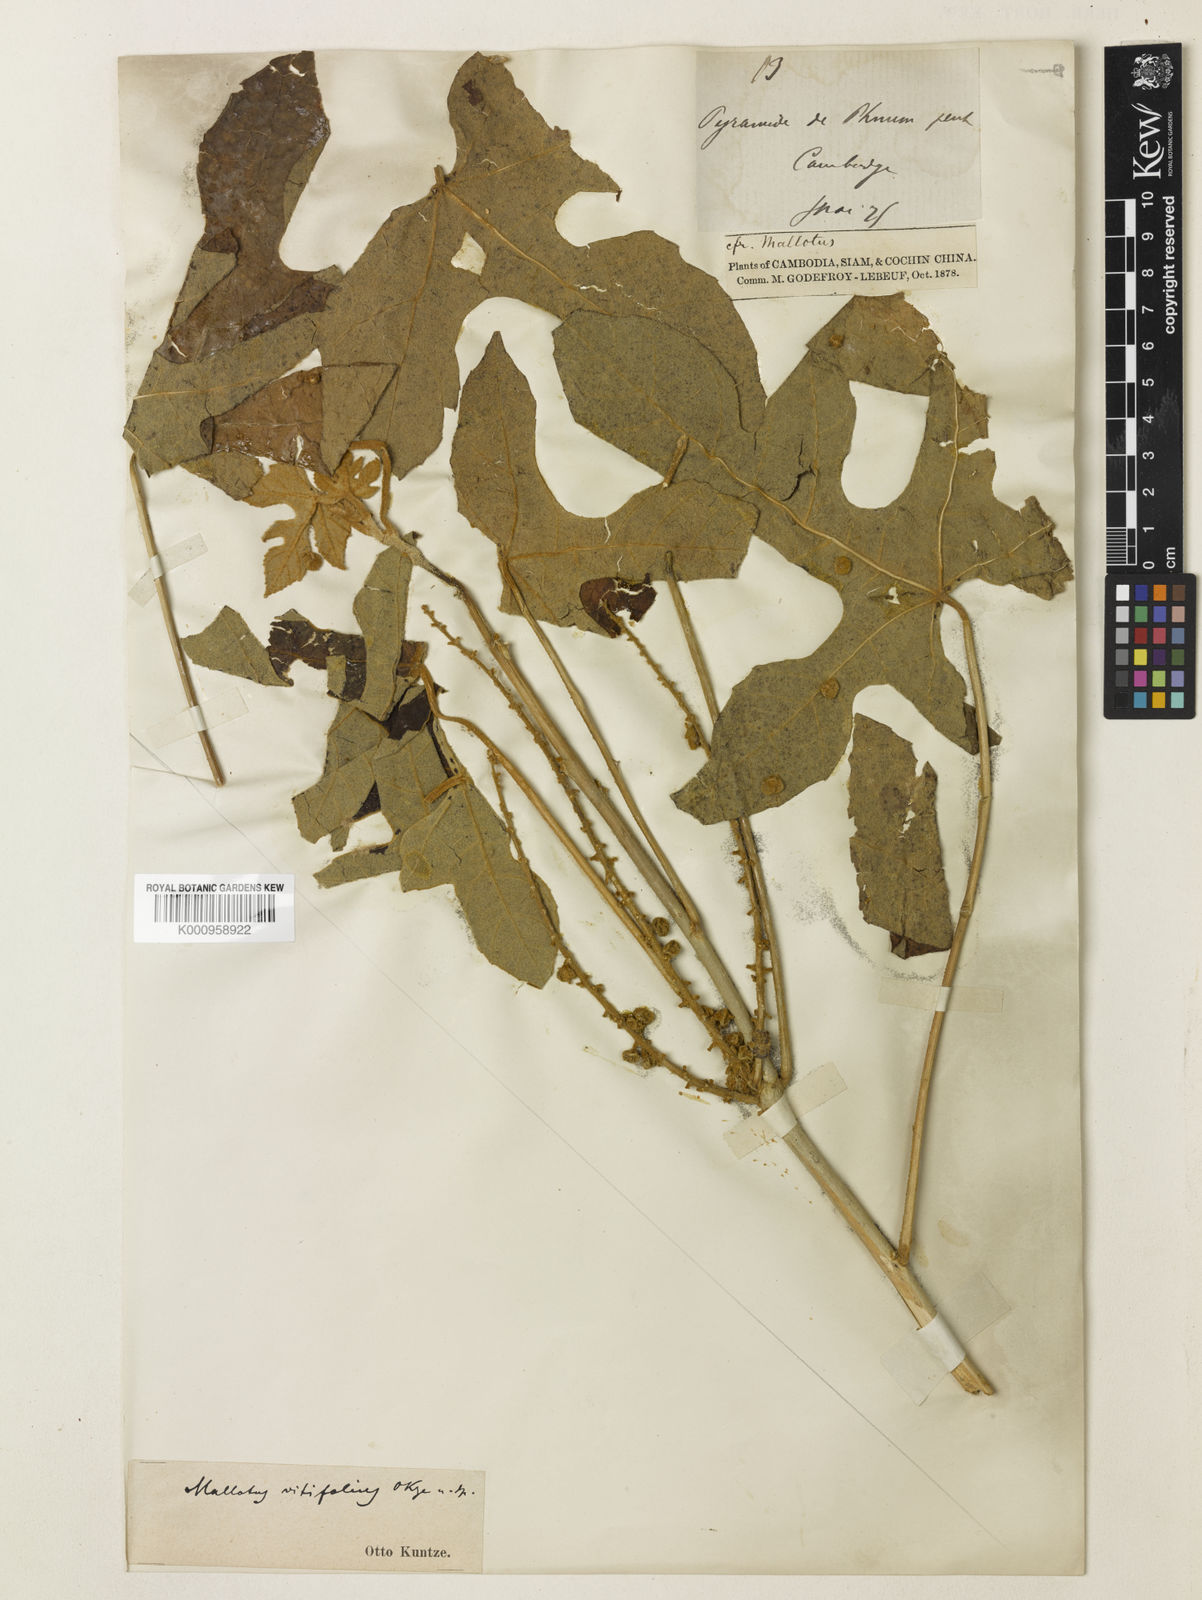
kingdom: Plantae
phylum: Tracheophyta
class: Magnoliopsida
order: Malpighiales
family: Euphorbiaceae
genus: Melanolepis
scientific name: Melanolepis vitifolia
